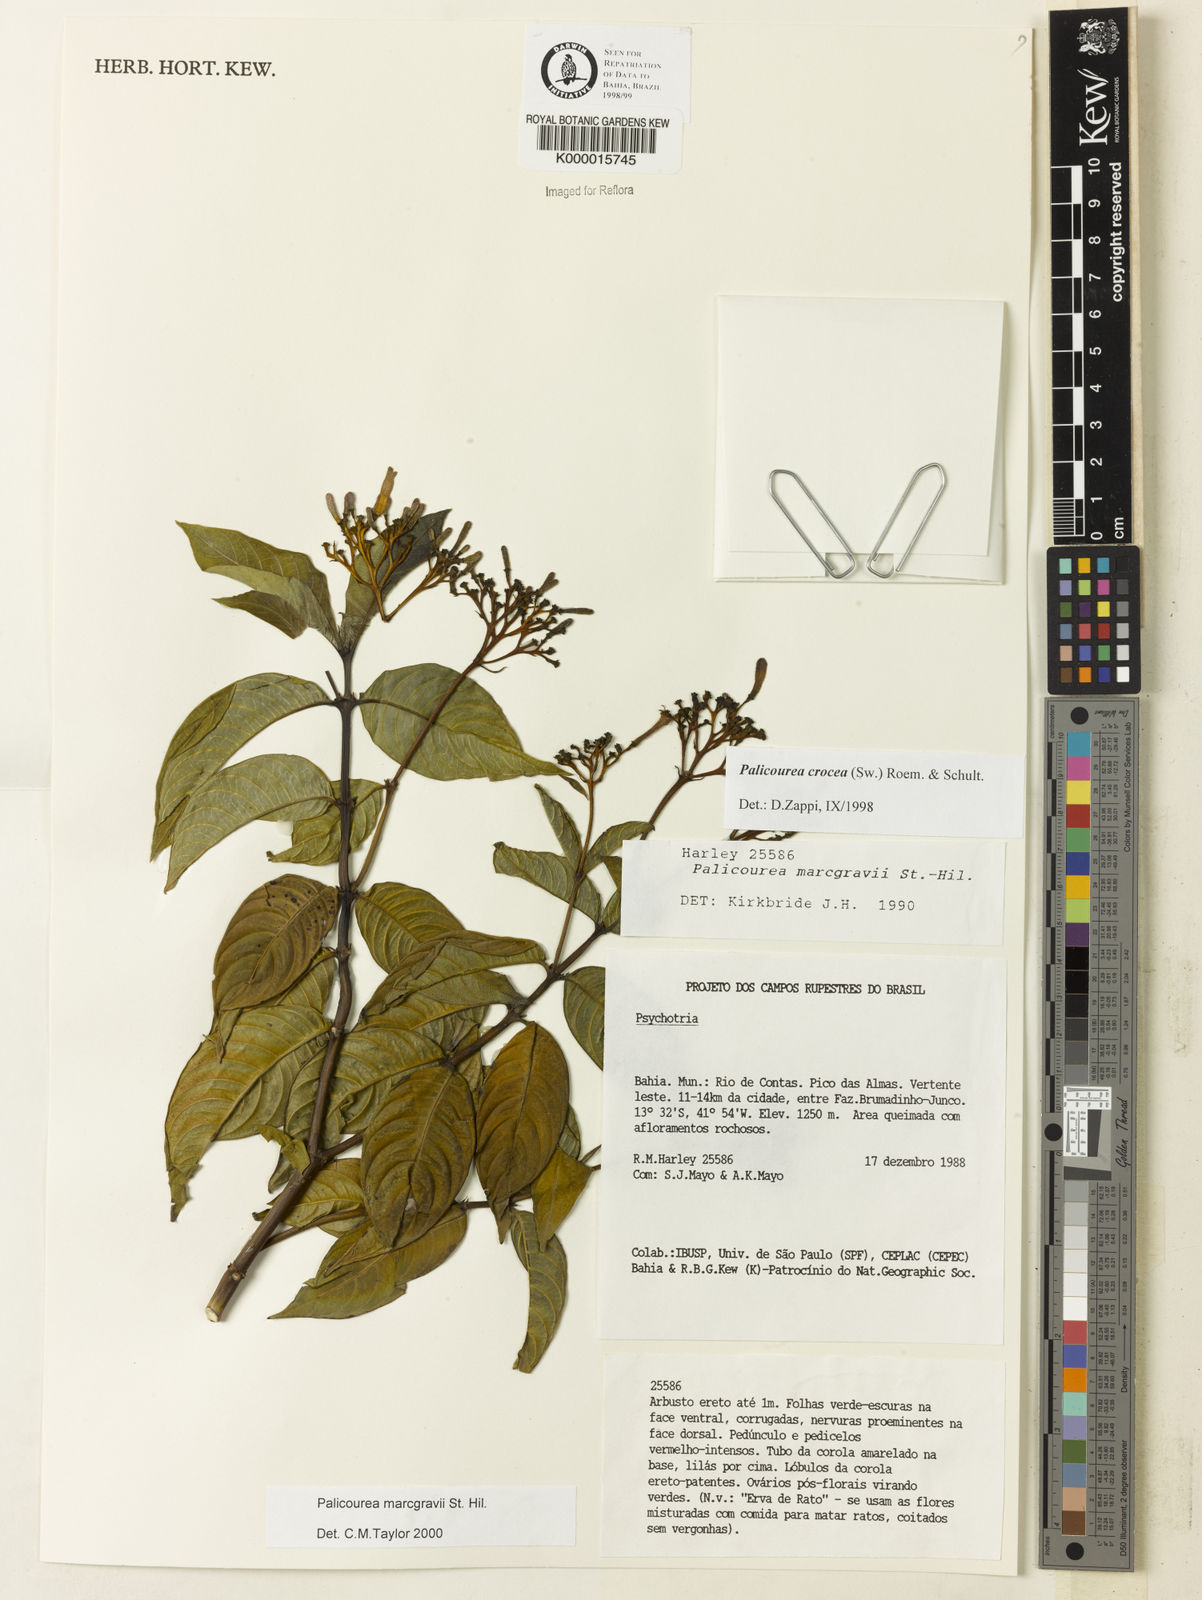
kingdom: Plantae
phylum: Tracheophyta
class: Magnoliopsida
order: Gentianales
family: Rubiaceae
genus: Palicourea
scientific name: Palicourea marcgravii
